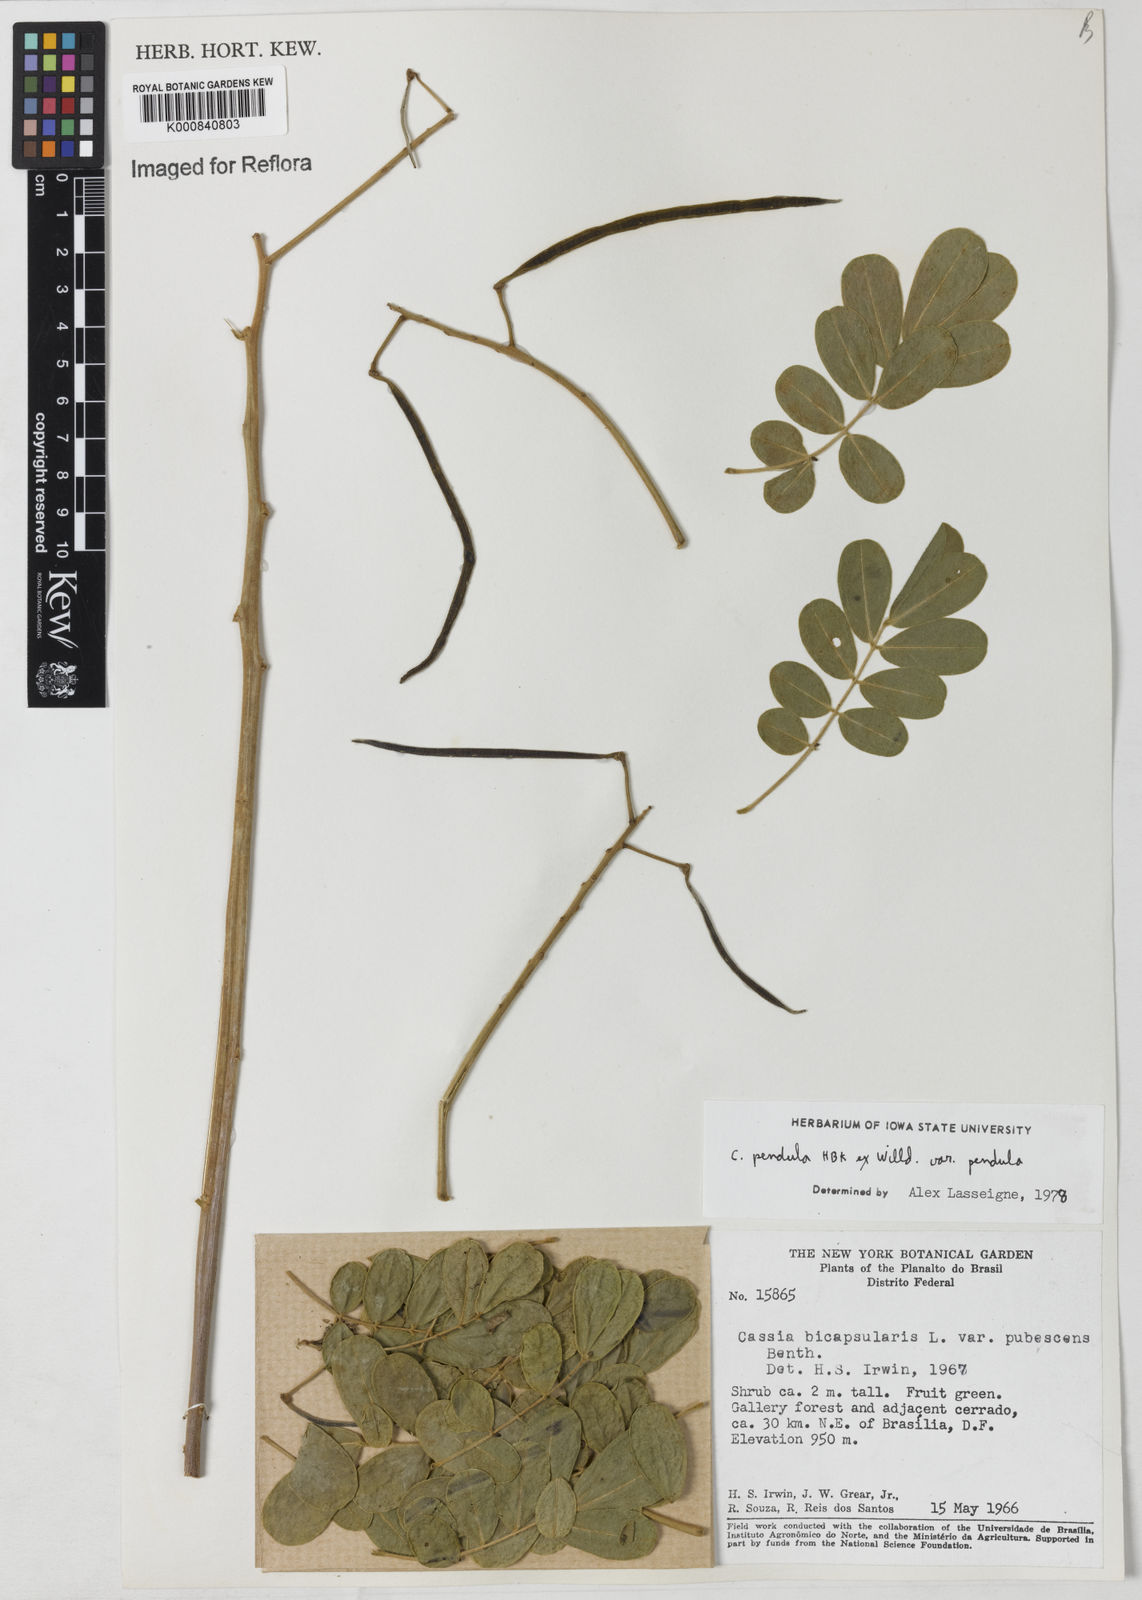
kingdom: Plantae
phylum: Tracheophyta
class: Magnoliopsida
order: Fabales
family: Fabaceae
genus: Senna
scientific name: Senna pendula
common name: Easter cassia
